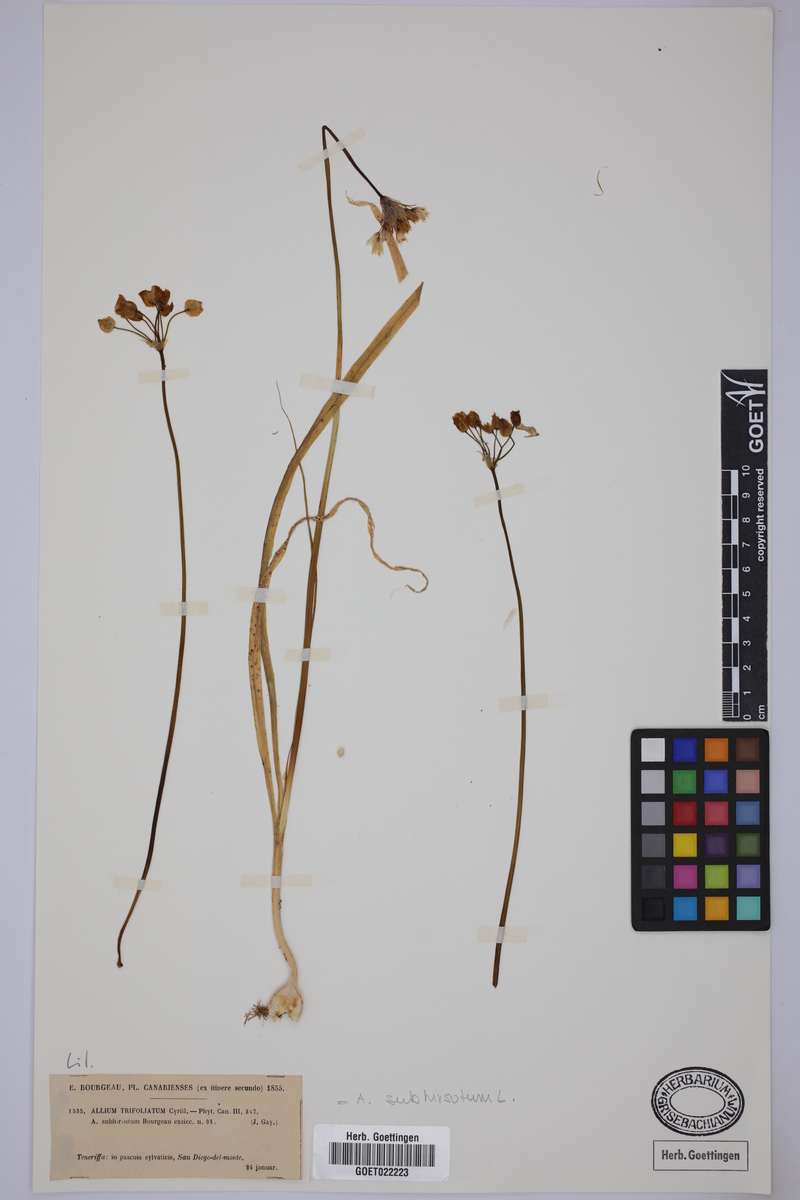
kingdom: Plantae
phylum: Tracheophyta
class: Liliopsida
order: Asparagales
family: Amaryllidaceae
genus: Allium
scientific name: Allium subhirsutum
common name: Hairy garlic
